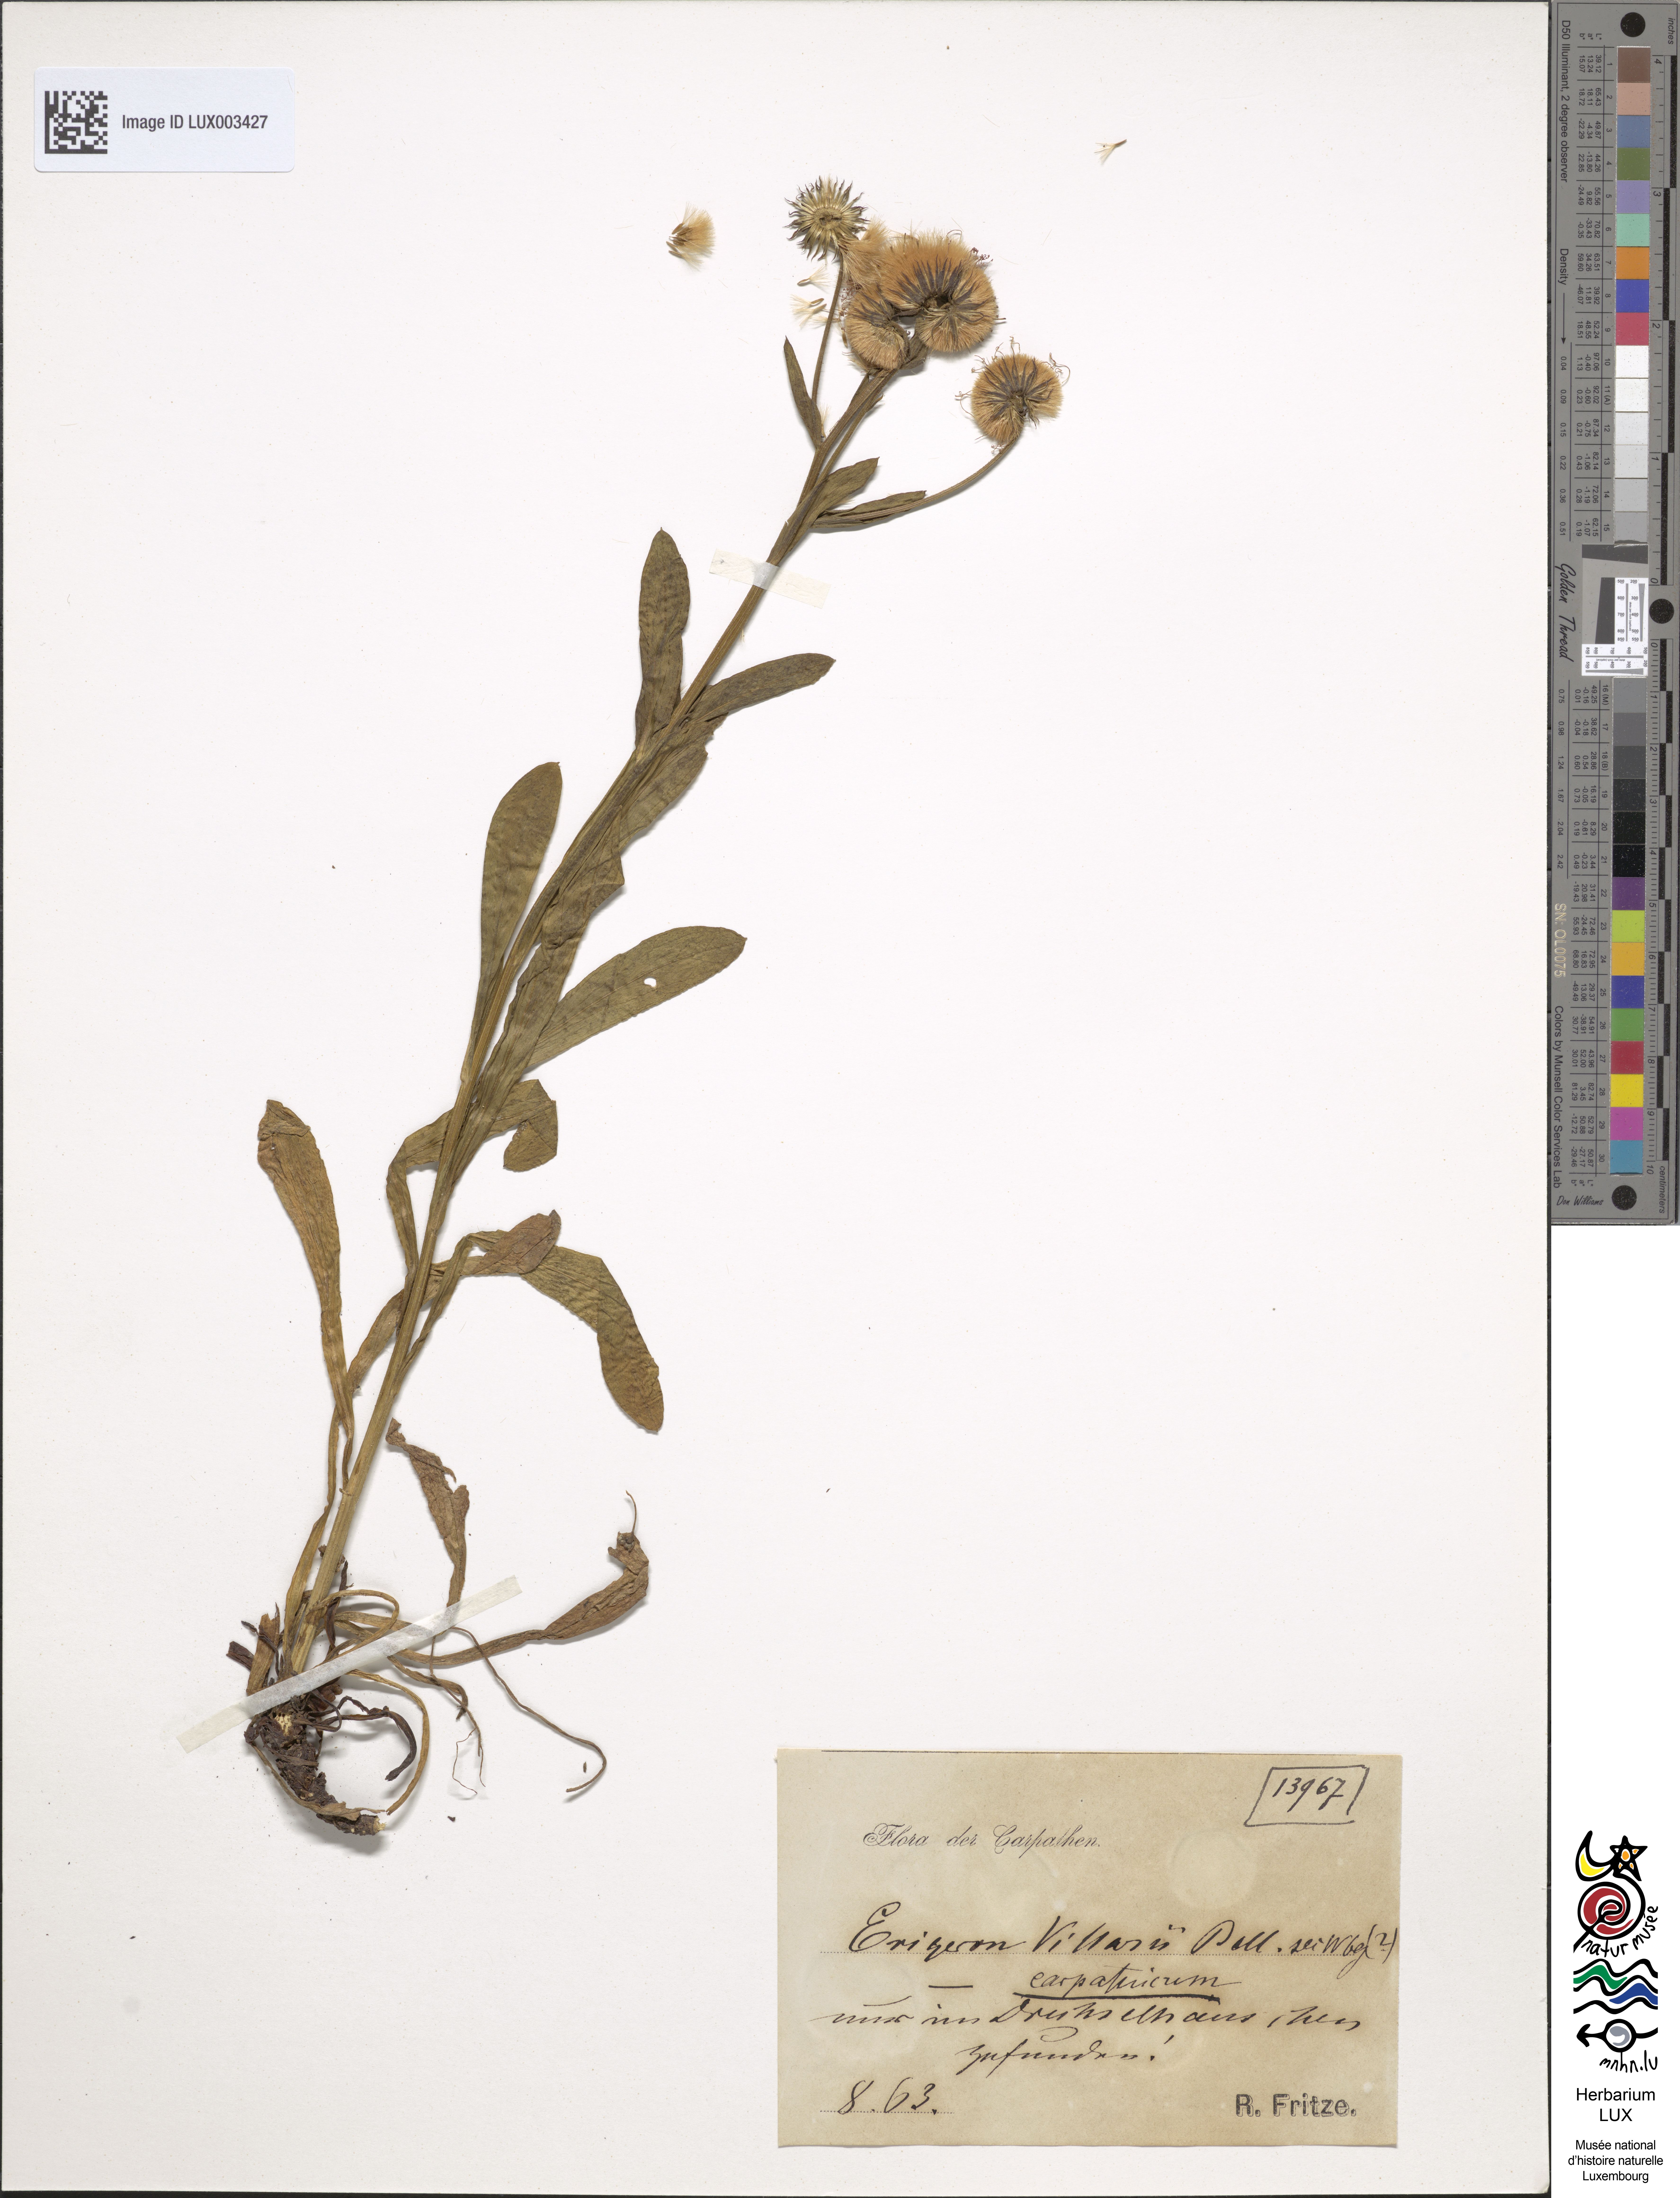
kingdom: Plantae
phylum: Tracheophyta
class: Magnoliopsida
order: Asterales
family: Asteraceae
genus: Erigeron
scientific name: Erigeron atticus
